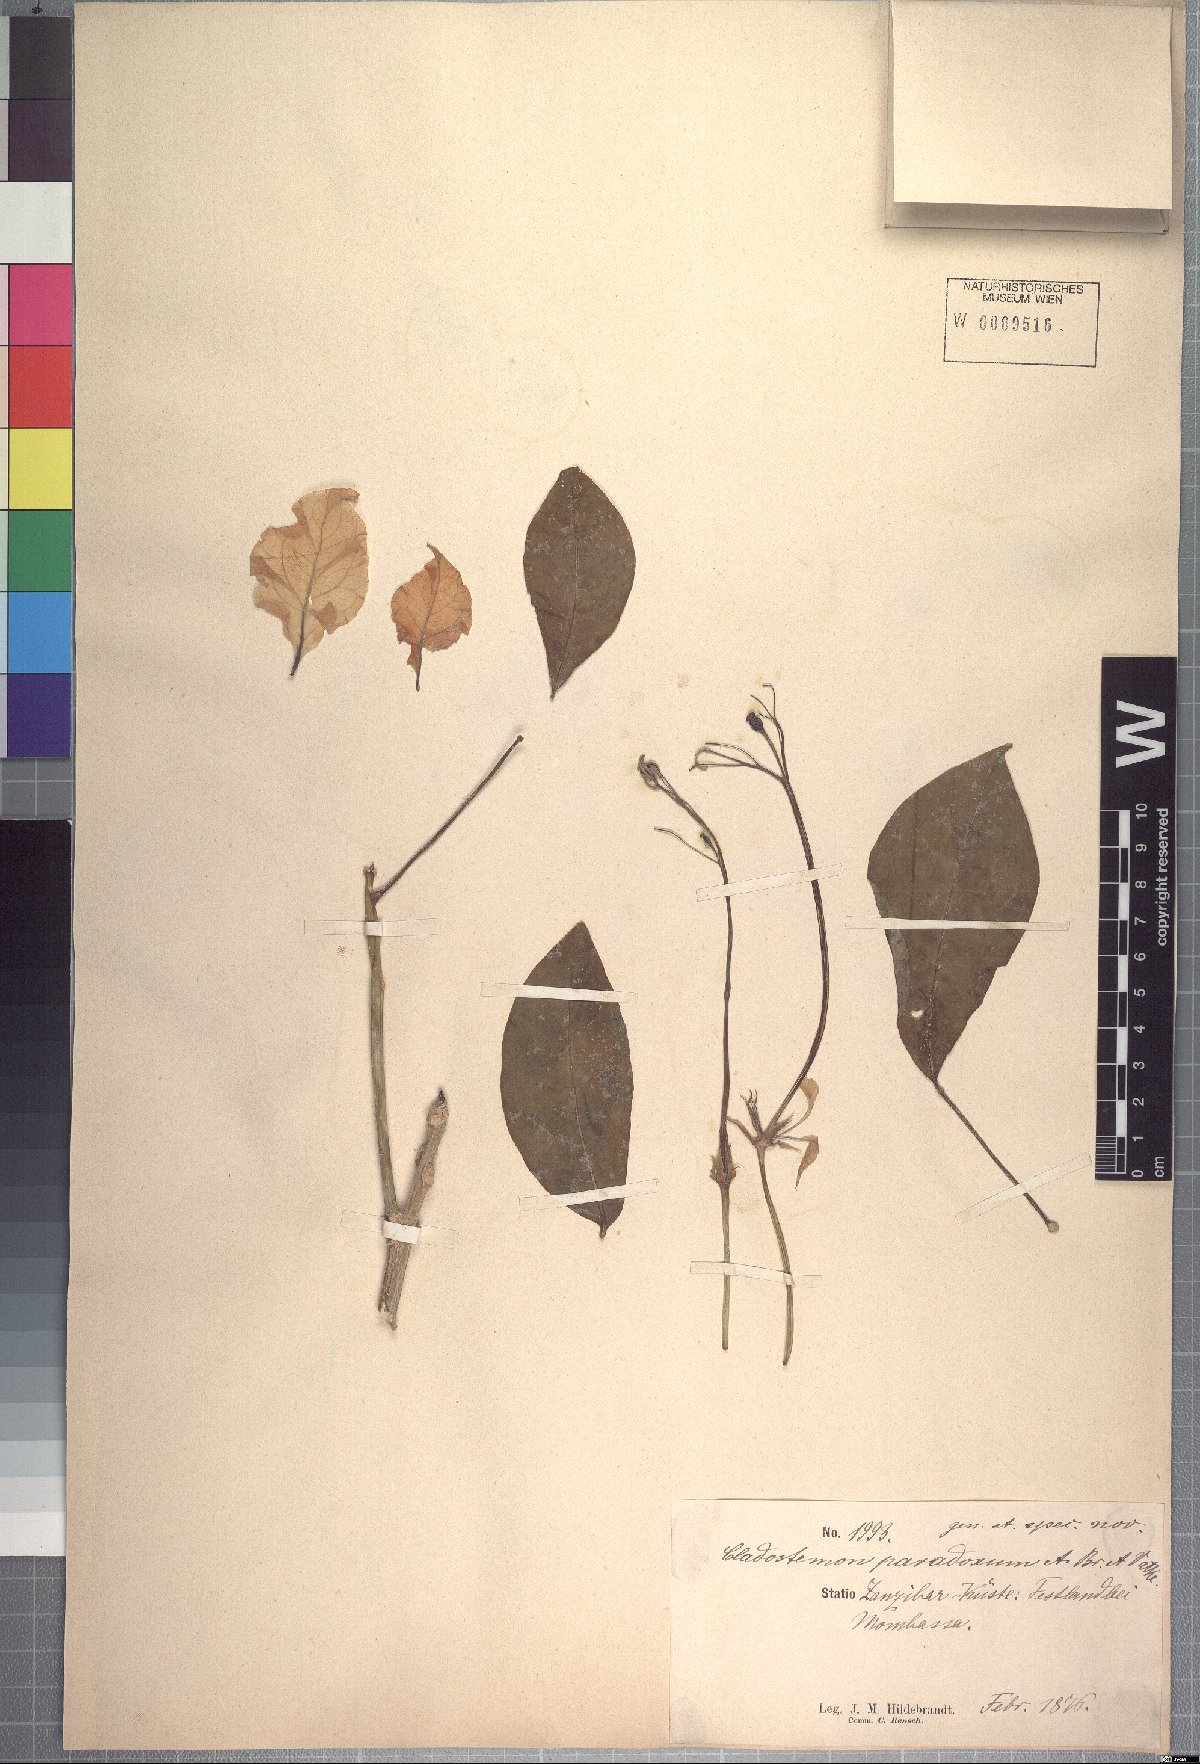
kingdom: Plantae
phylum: Tracheophyta
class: Magnoliopsida
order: Brassicales
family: Capparaceae
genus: Cladostemon
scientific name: Cladostemon kirkii
